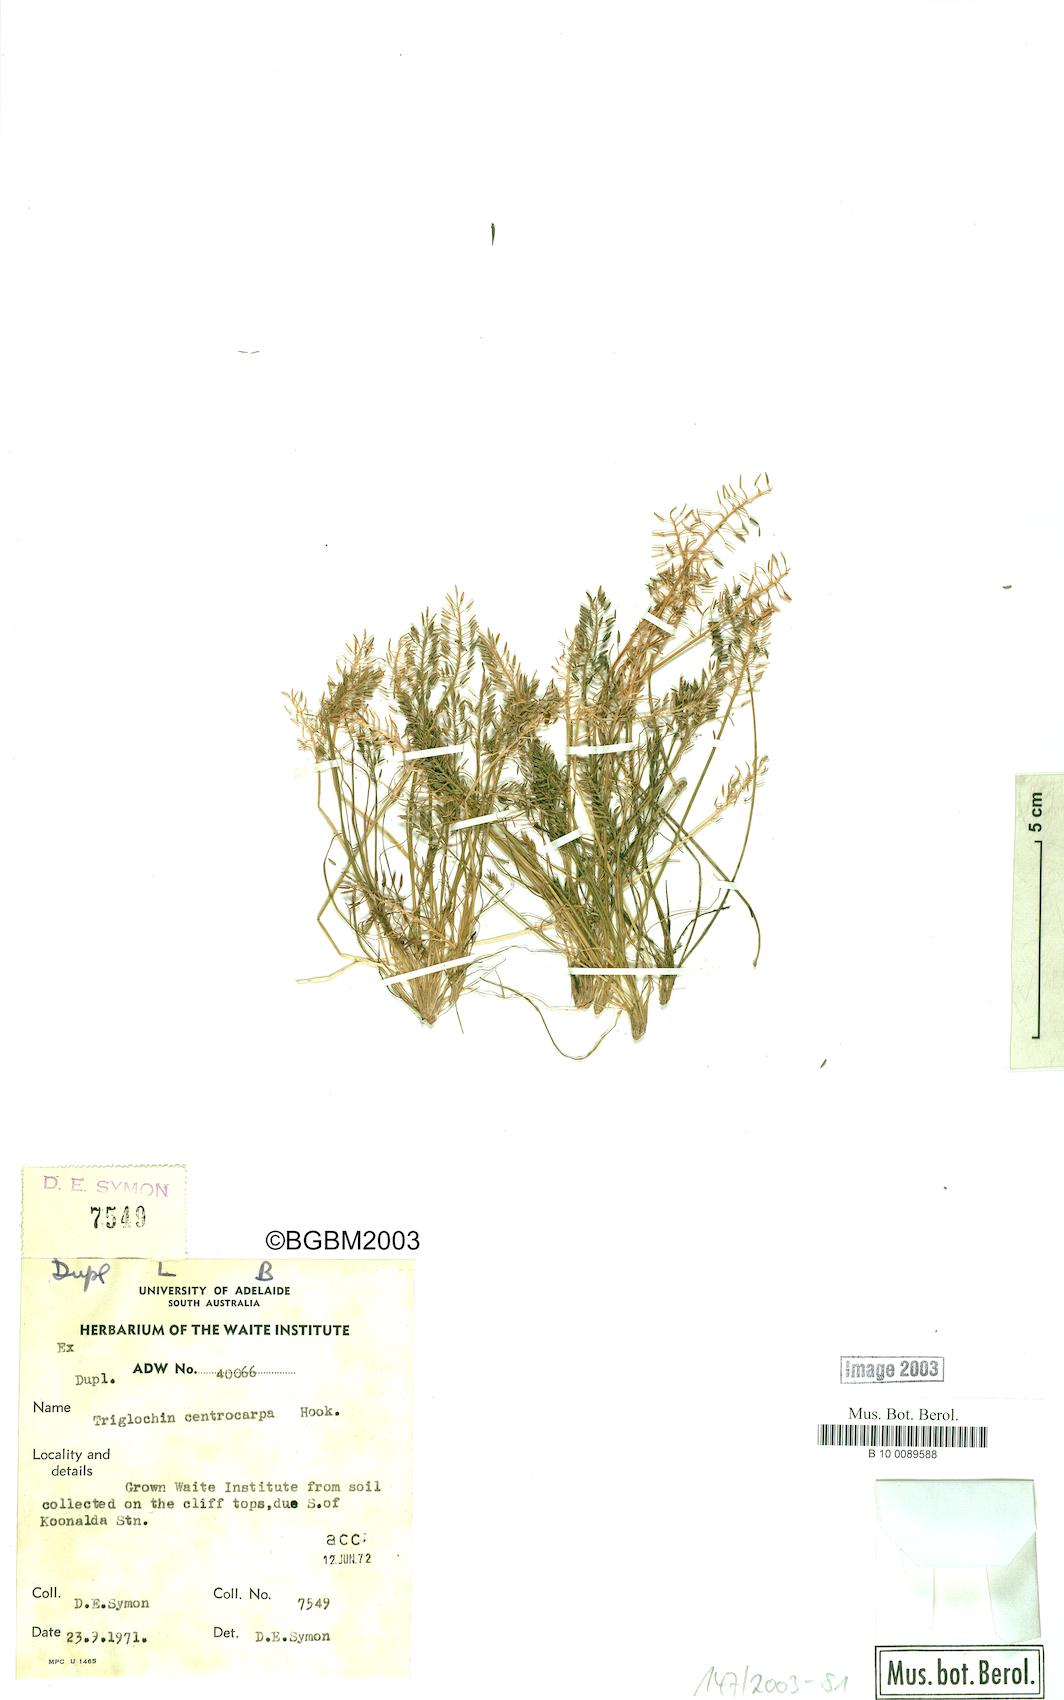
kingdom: Plantae
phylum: Tracheophyta
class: Liliopsida
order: Alismatales
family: Juncaginaceae
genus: Triglochin
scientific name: Triglochin centrocarpa
